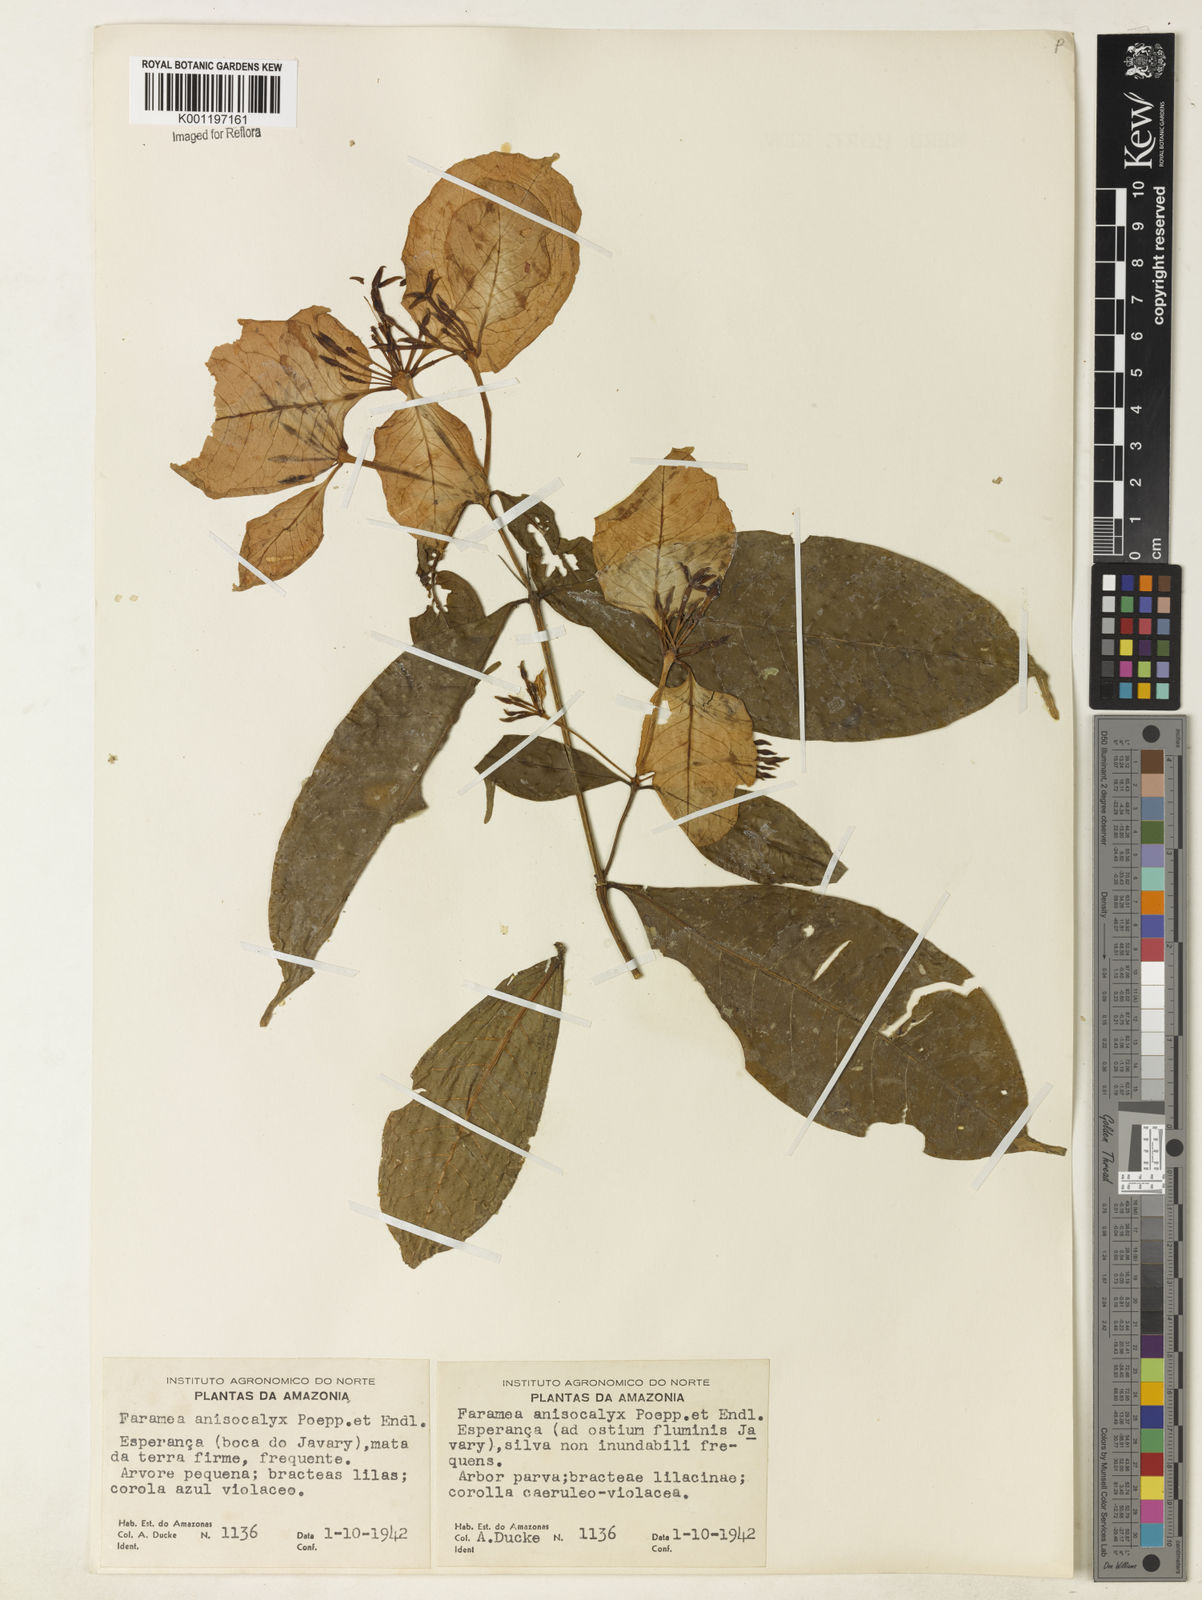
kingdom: Plantae
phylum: Tracheophyta
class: Magnoliopsida
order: Gentianales
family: Rubiaceae
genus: Faramea
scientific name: Faramea anisocalyx
